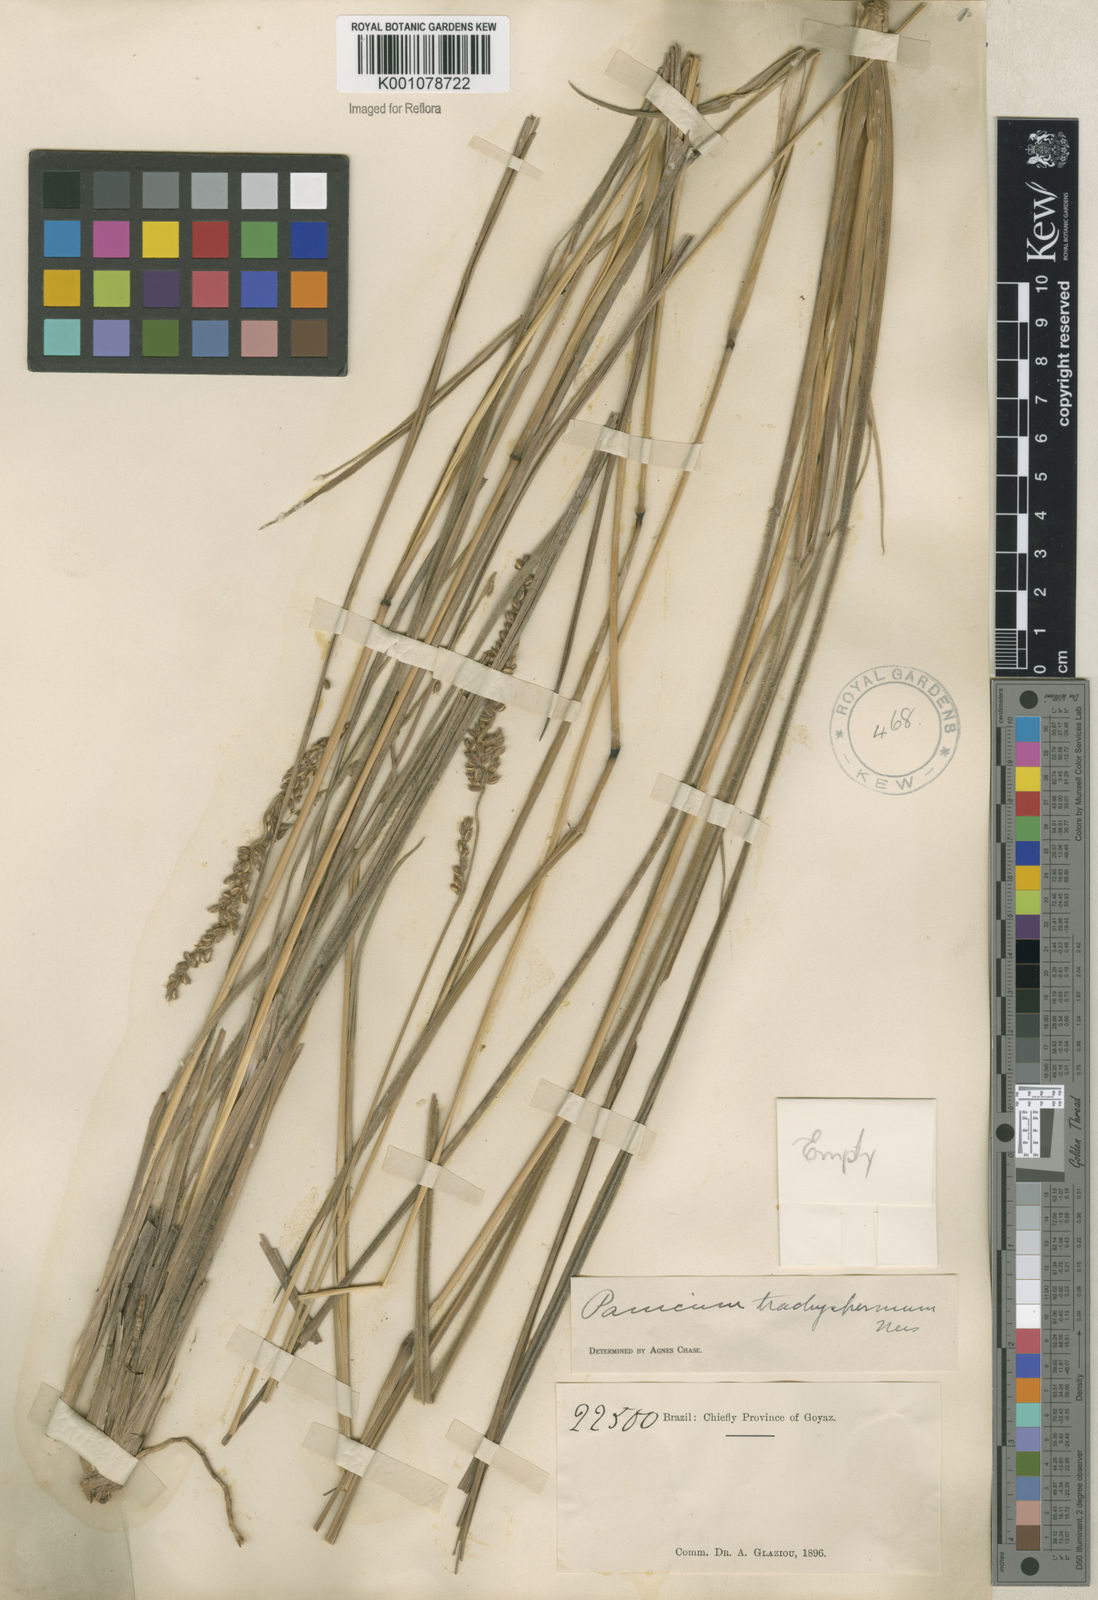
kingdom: Plantae
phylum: Tracheophyta
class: Liliopsida
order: Poales
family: Poaceae
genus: Anthaenantiopsis
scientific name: Anthaenantiopsis perforata
